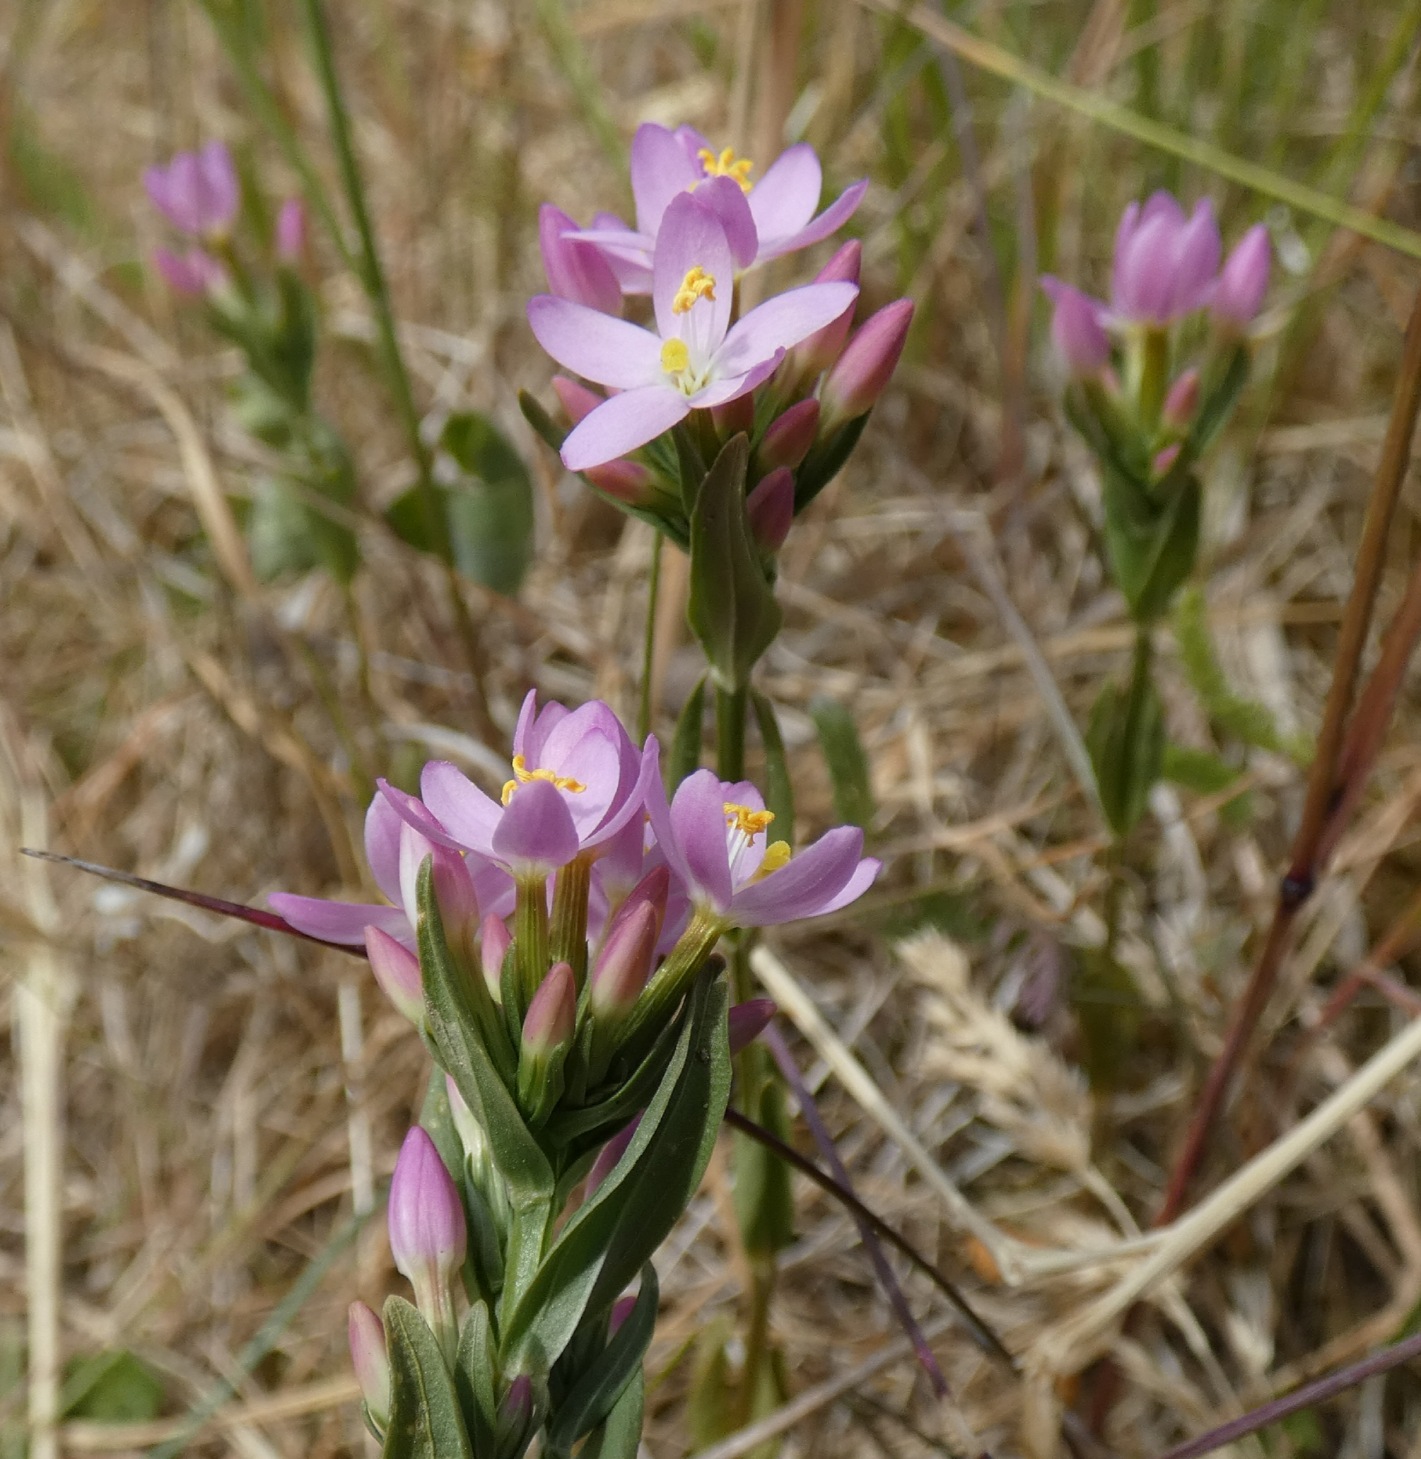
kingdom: Plantae
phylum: Tracheophyta
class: Magnoliopsida
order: Gentianales
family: Gentianaceae
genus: Centaurium
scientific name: Centaurium erythraea
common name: Mark-tusindgylden
